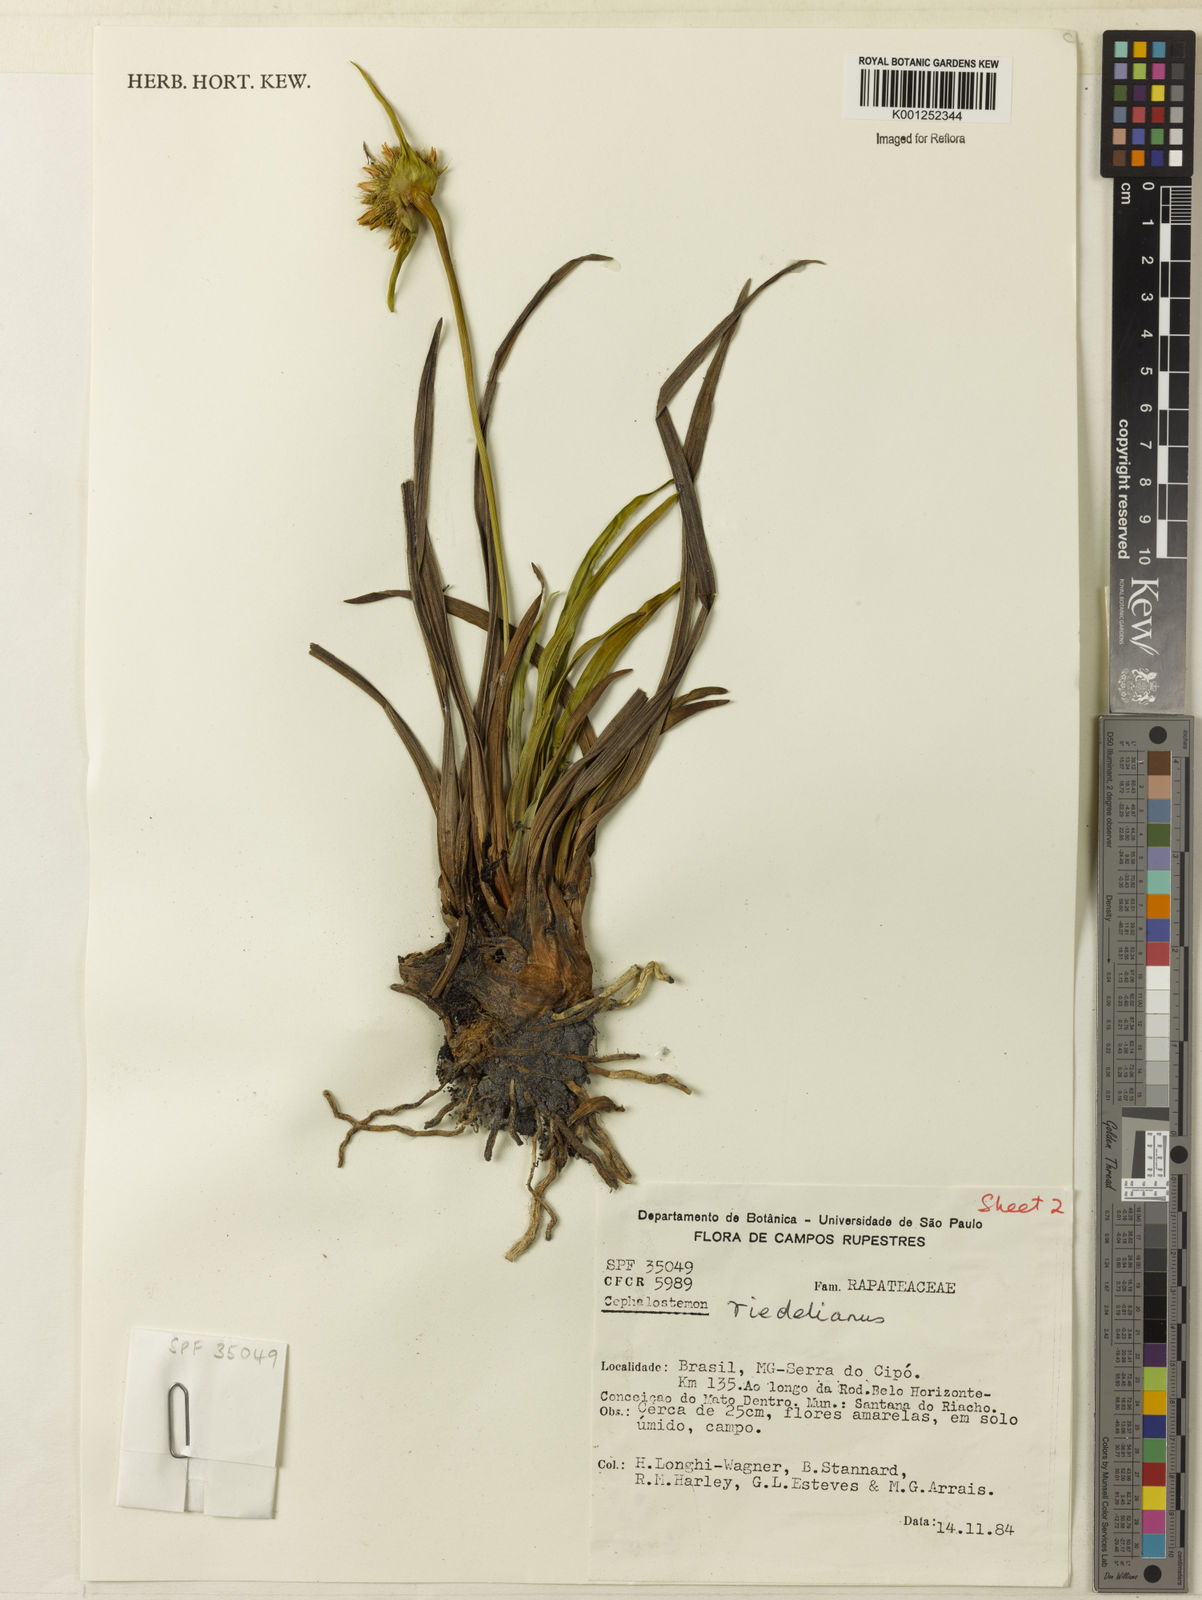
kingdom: Plantae
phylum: Tracheophyta
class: Liliopsida
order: Poales
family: Rapateaceae
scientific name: Rapateaceae
